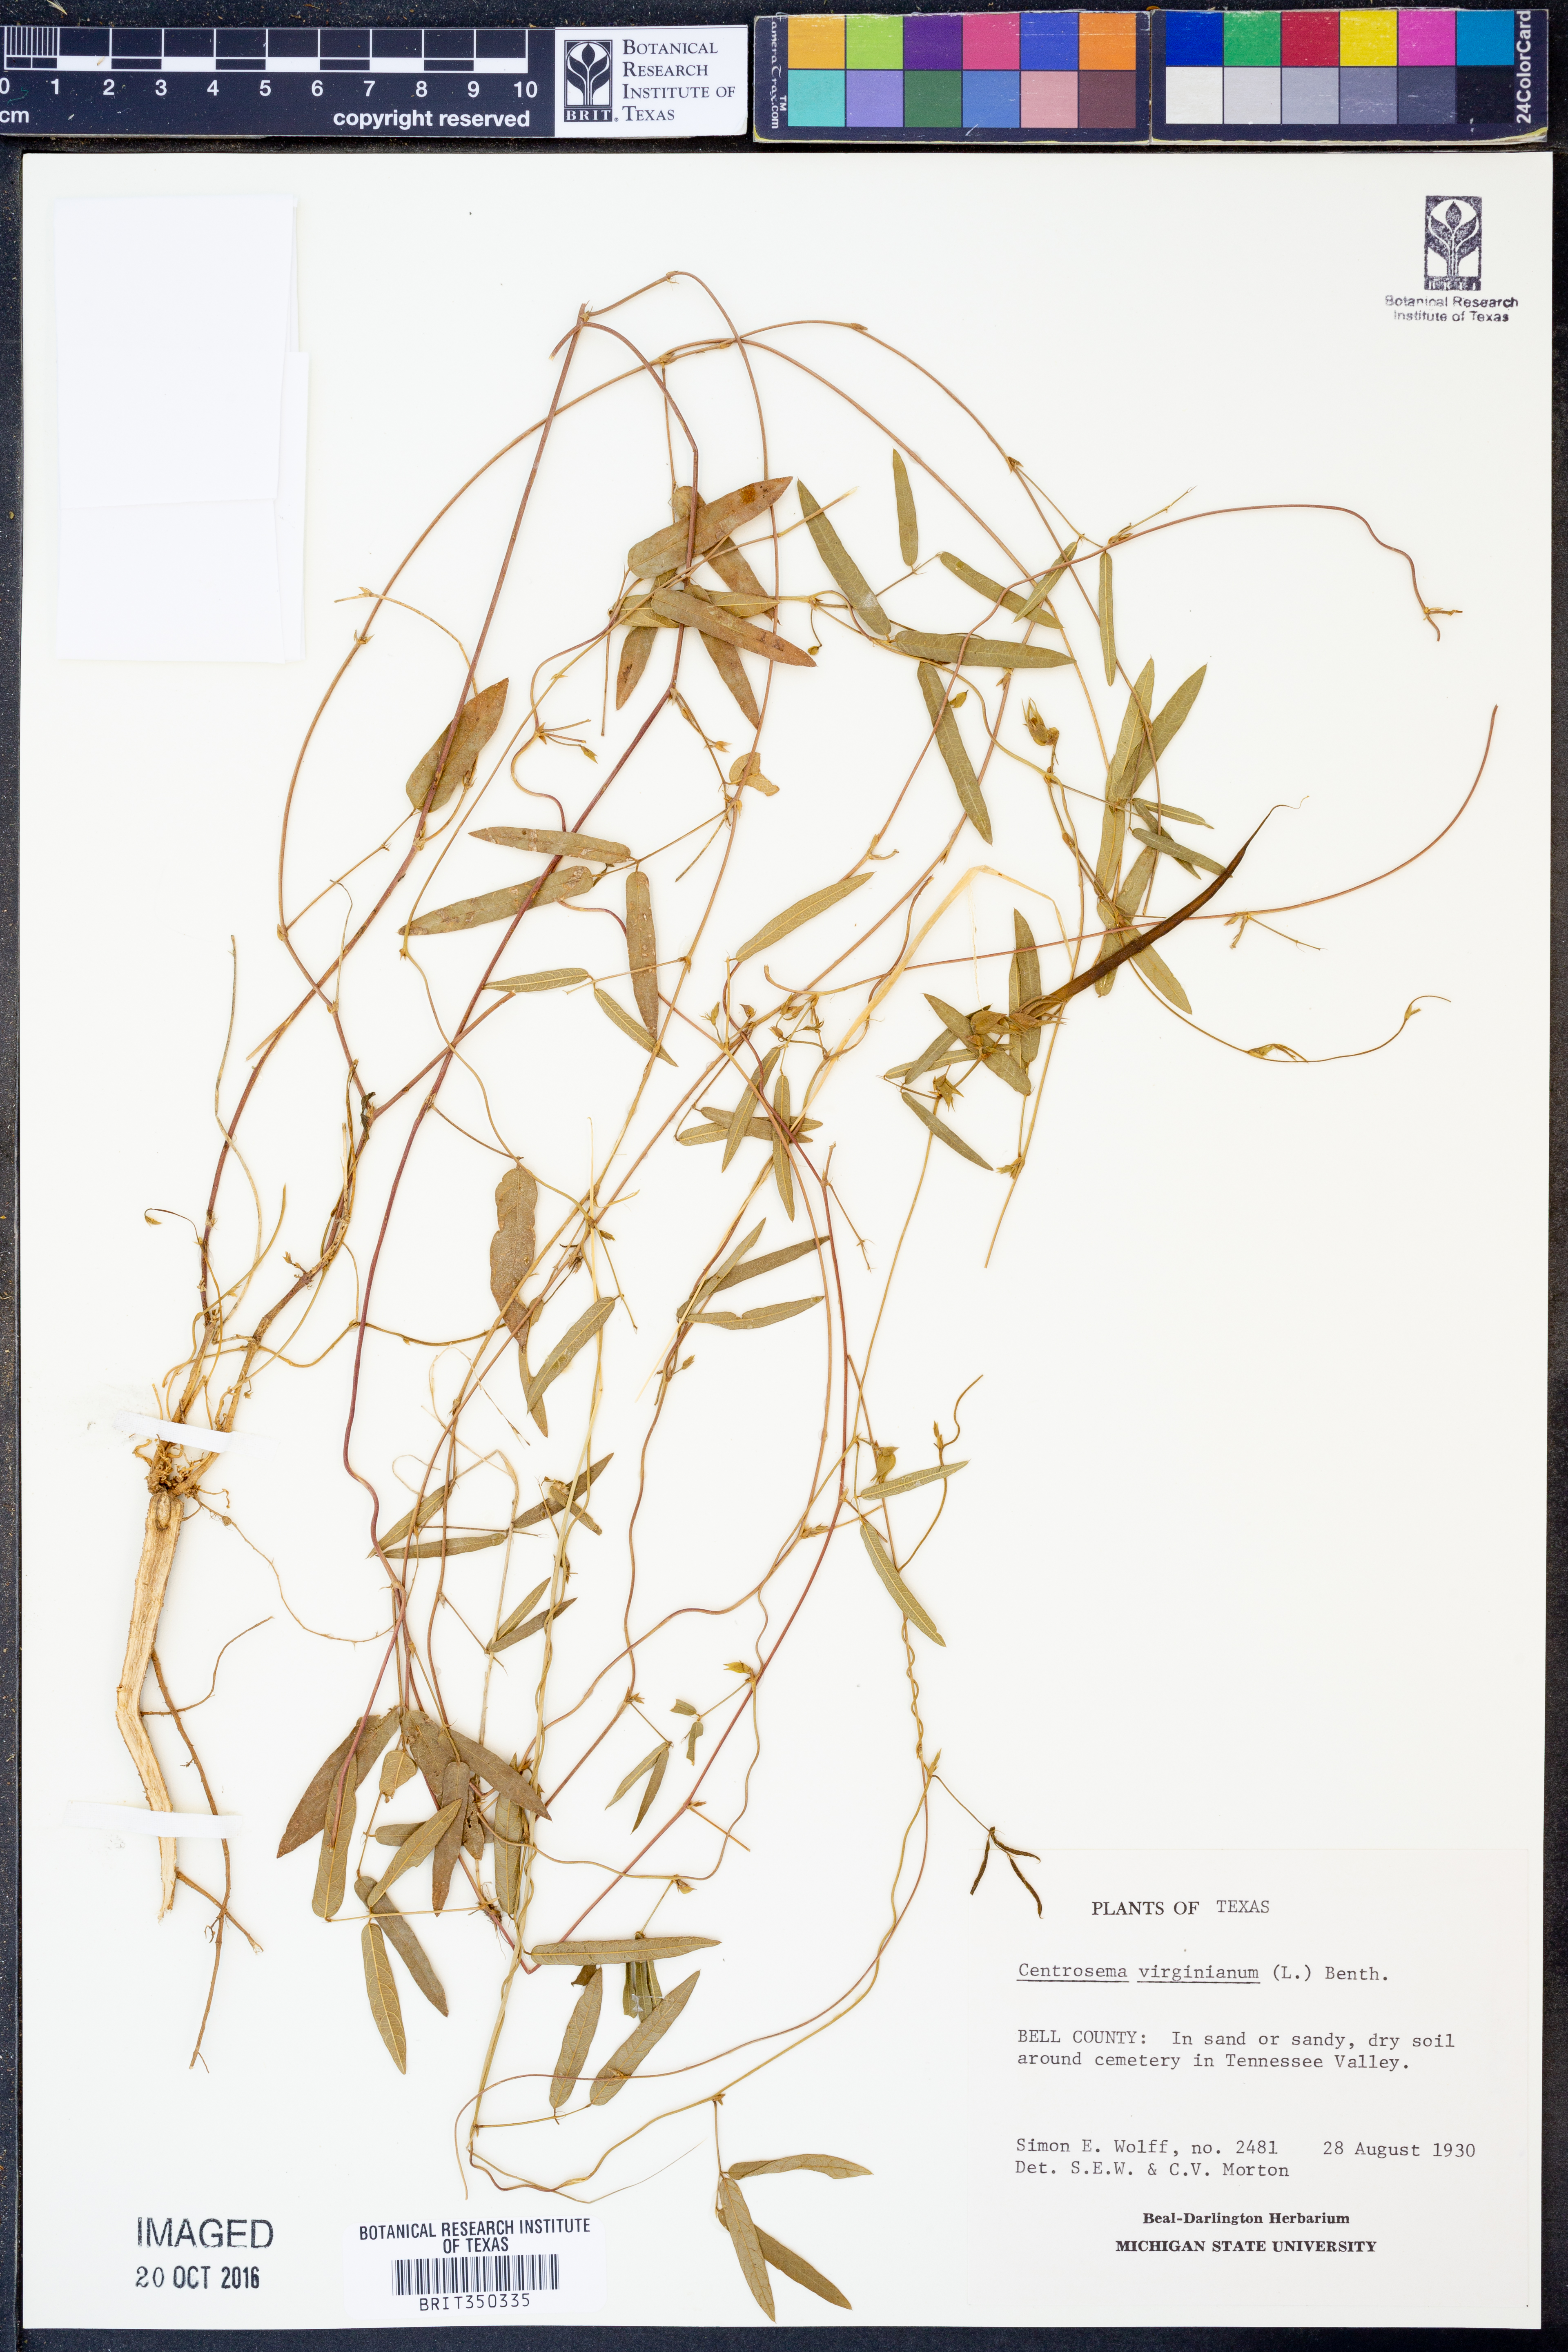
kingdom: Plantae
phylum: Tracheophyta
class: Magnoliopsida
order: Fabales
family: Fabaceae
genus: Centrosema
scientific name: Centrosema virginianum
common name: Butterfly-pea
